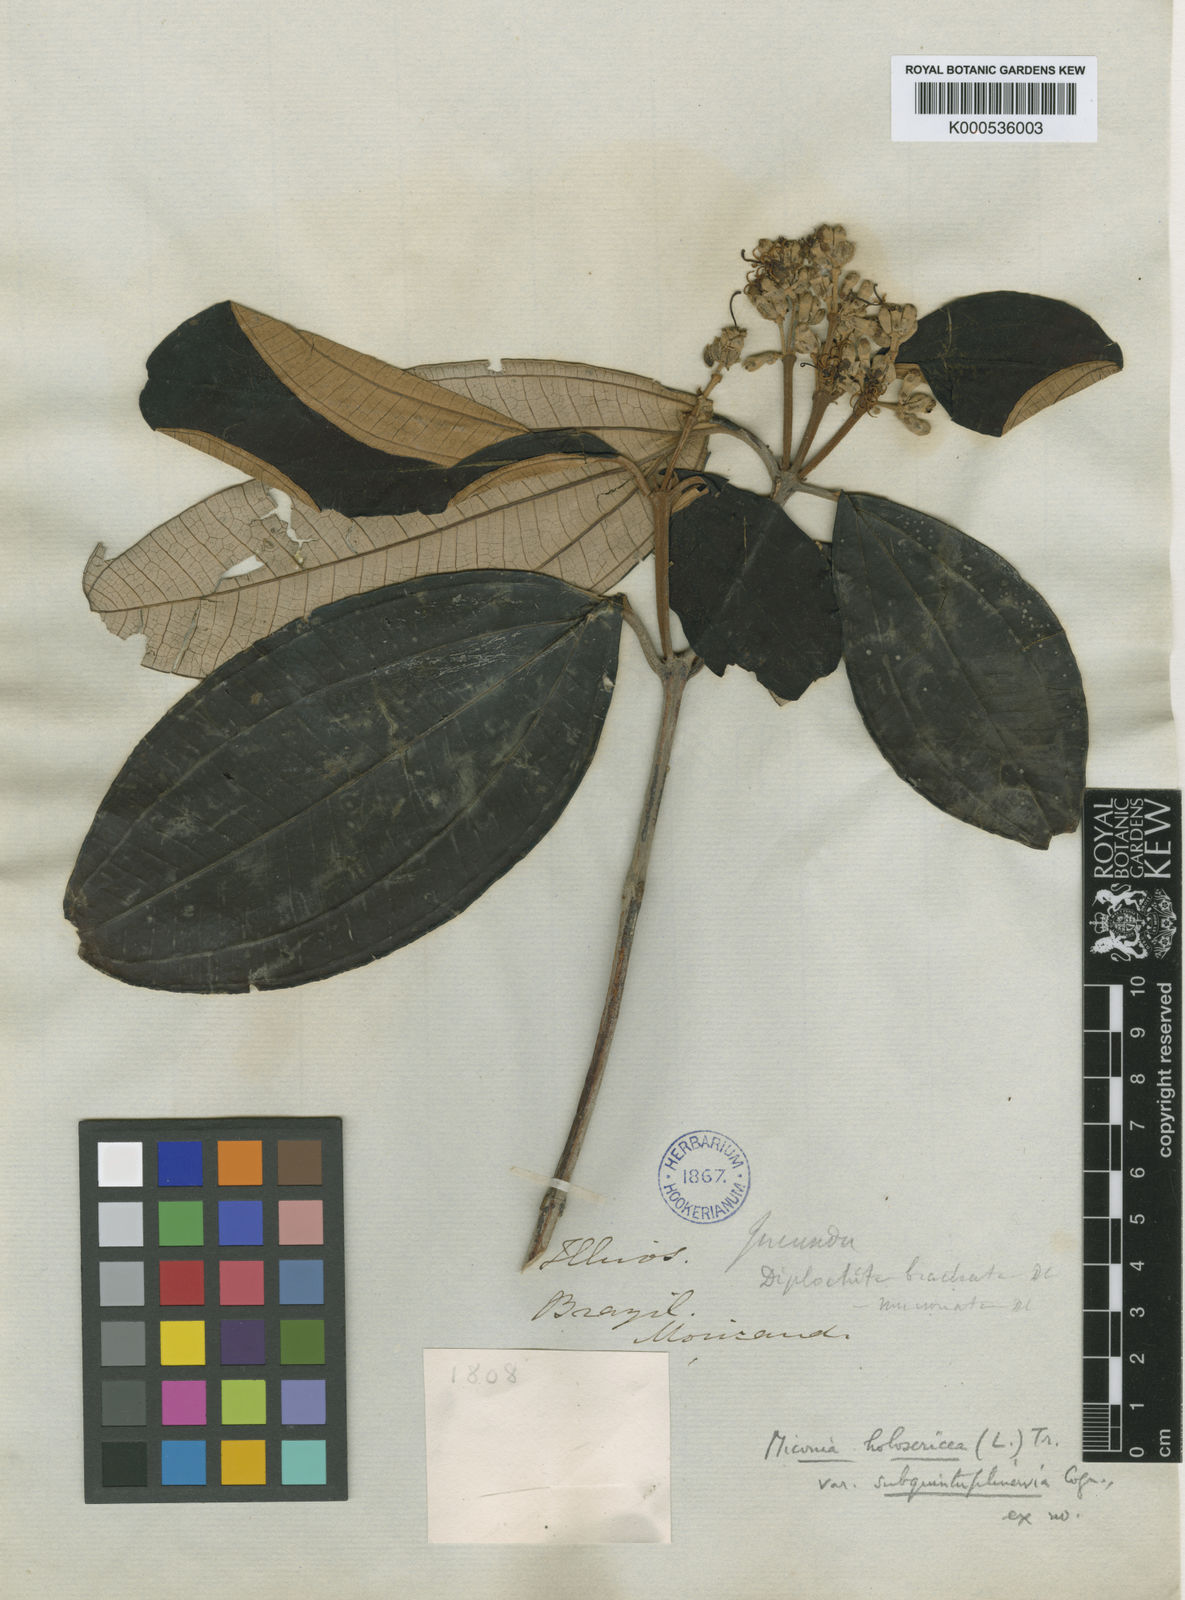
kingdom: Plantae
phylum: Tracheophyta
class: Magnoliopsida
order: Myrtales
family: Melastomataceae
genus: Miconia
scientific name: Miconia holosericea
